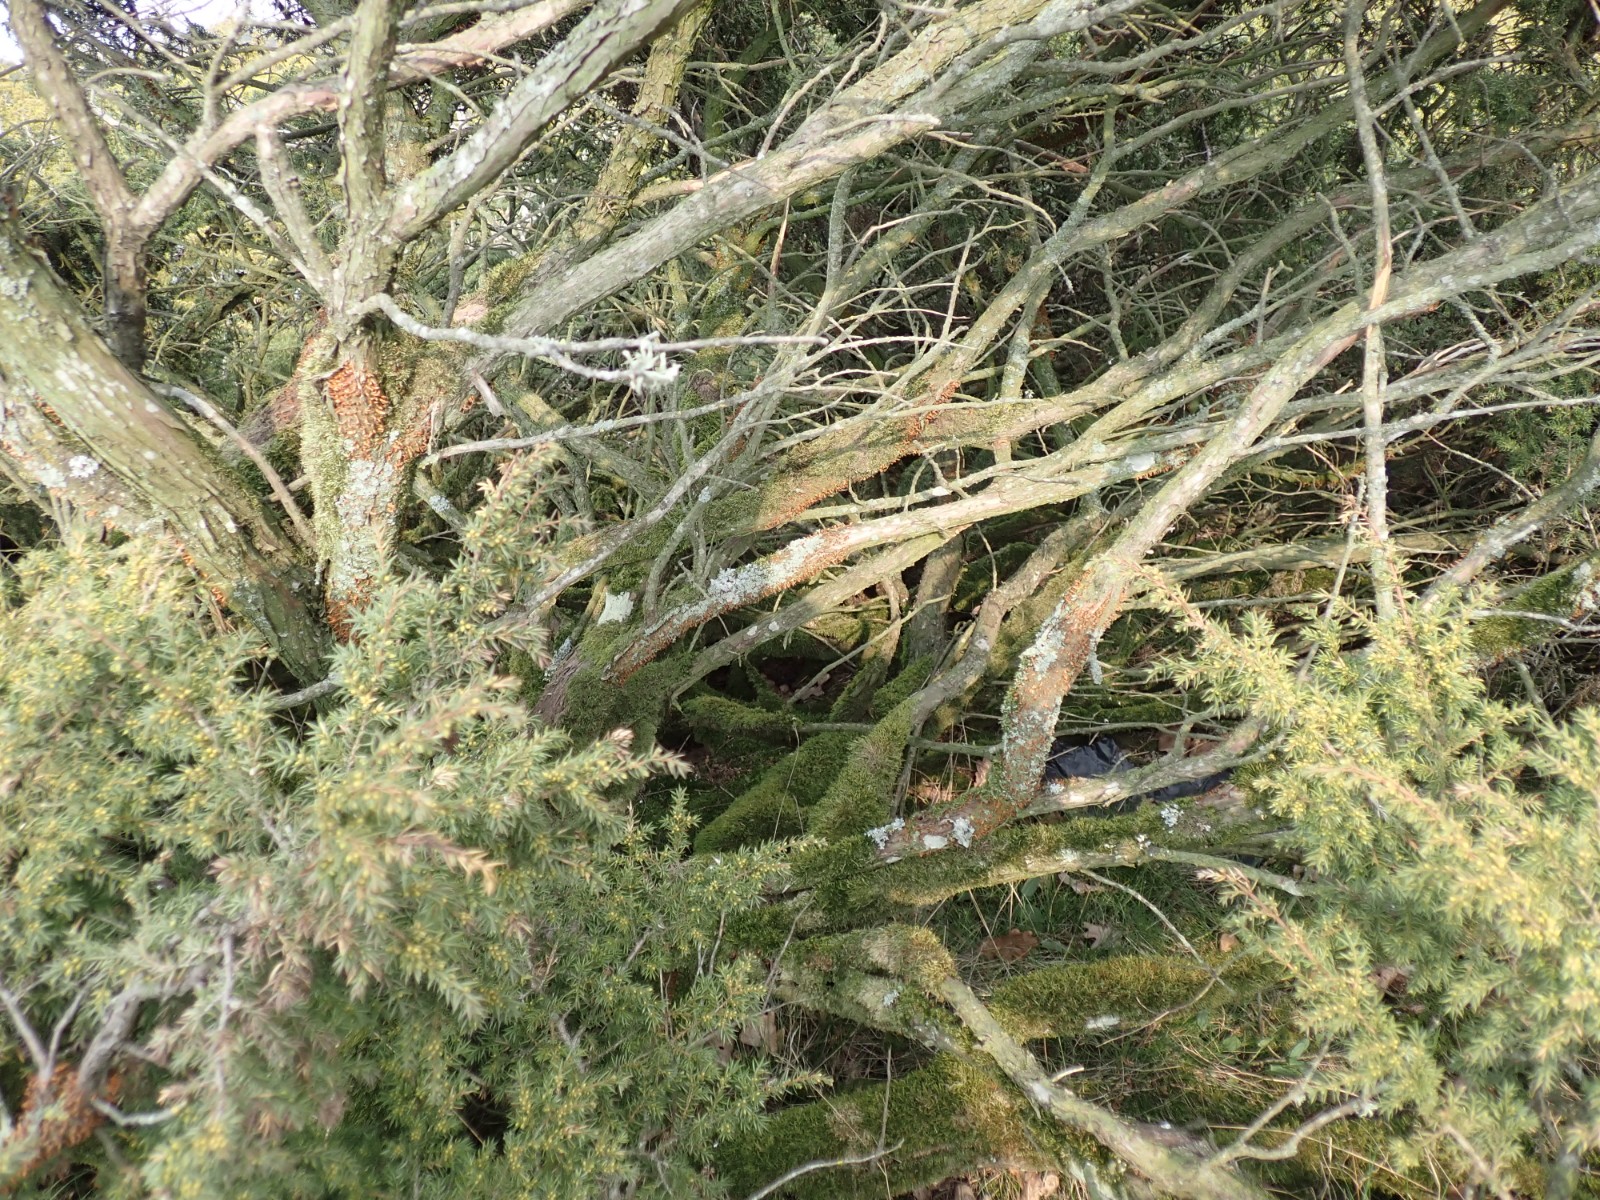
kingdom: Fungi
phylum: Basidiomycota
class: Pucciniomycetes
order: Pucciniales
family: Gymnosporangiaceae
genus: Gymnosporangium
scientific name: Gymnosporangium clavariiforme
